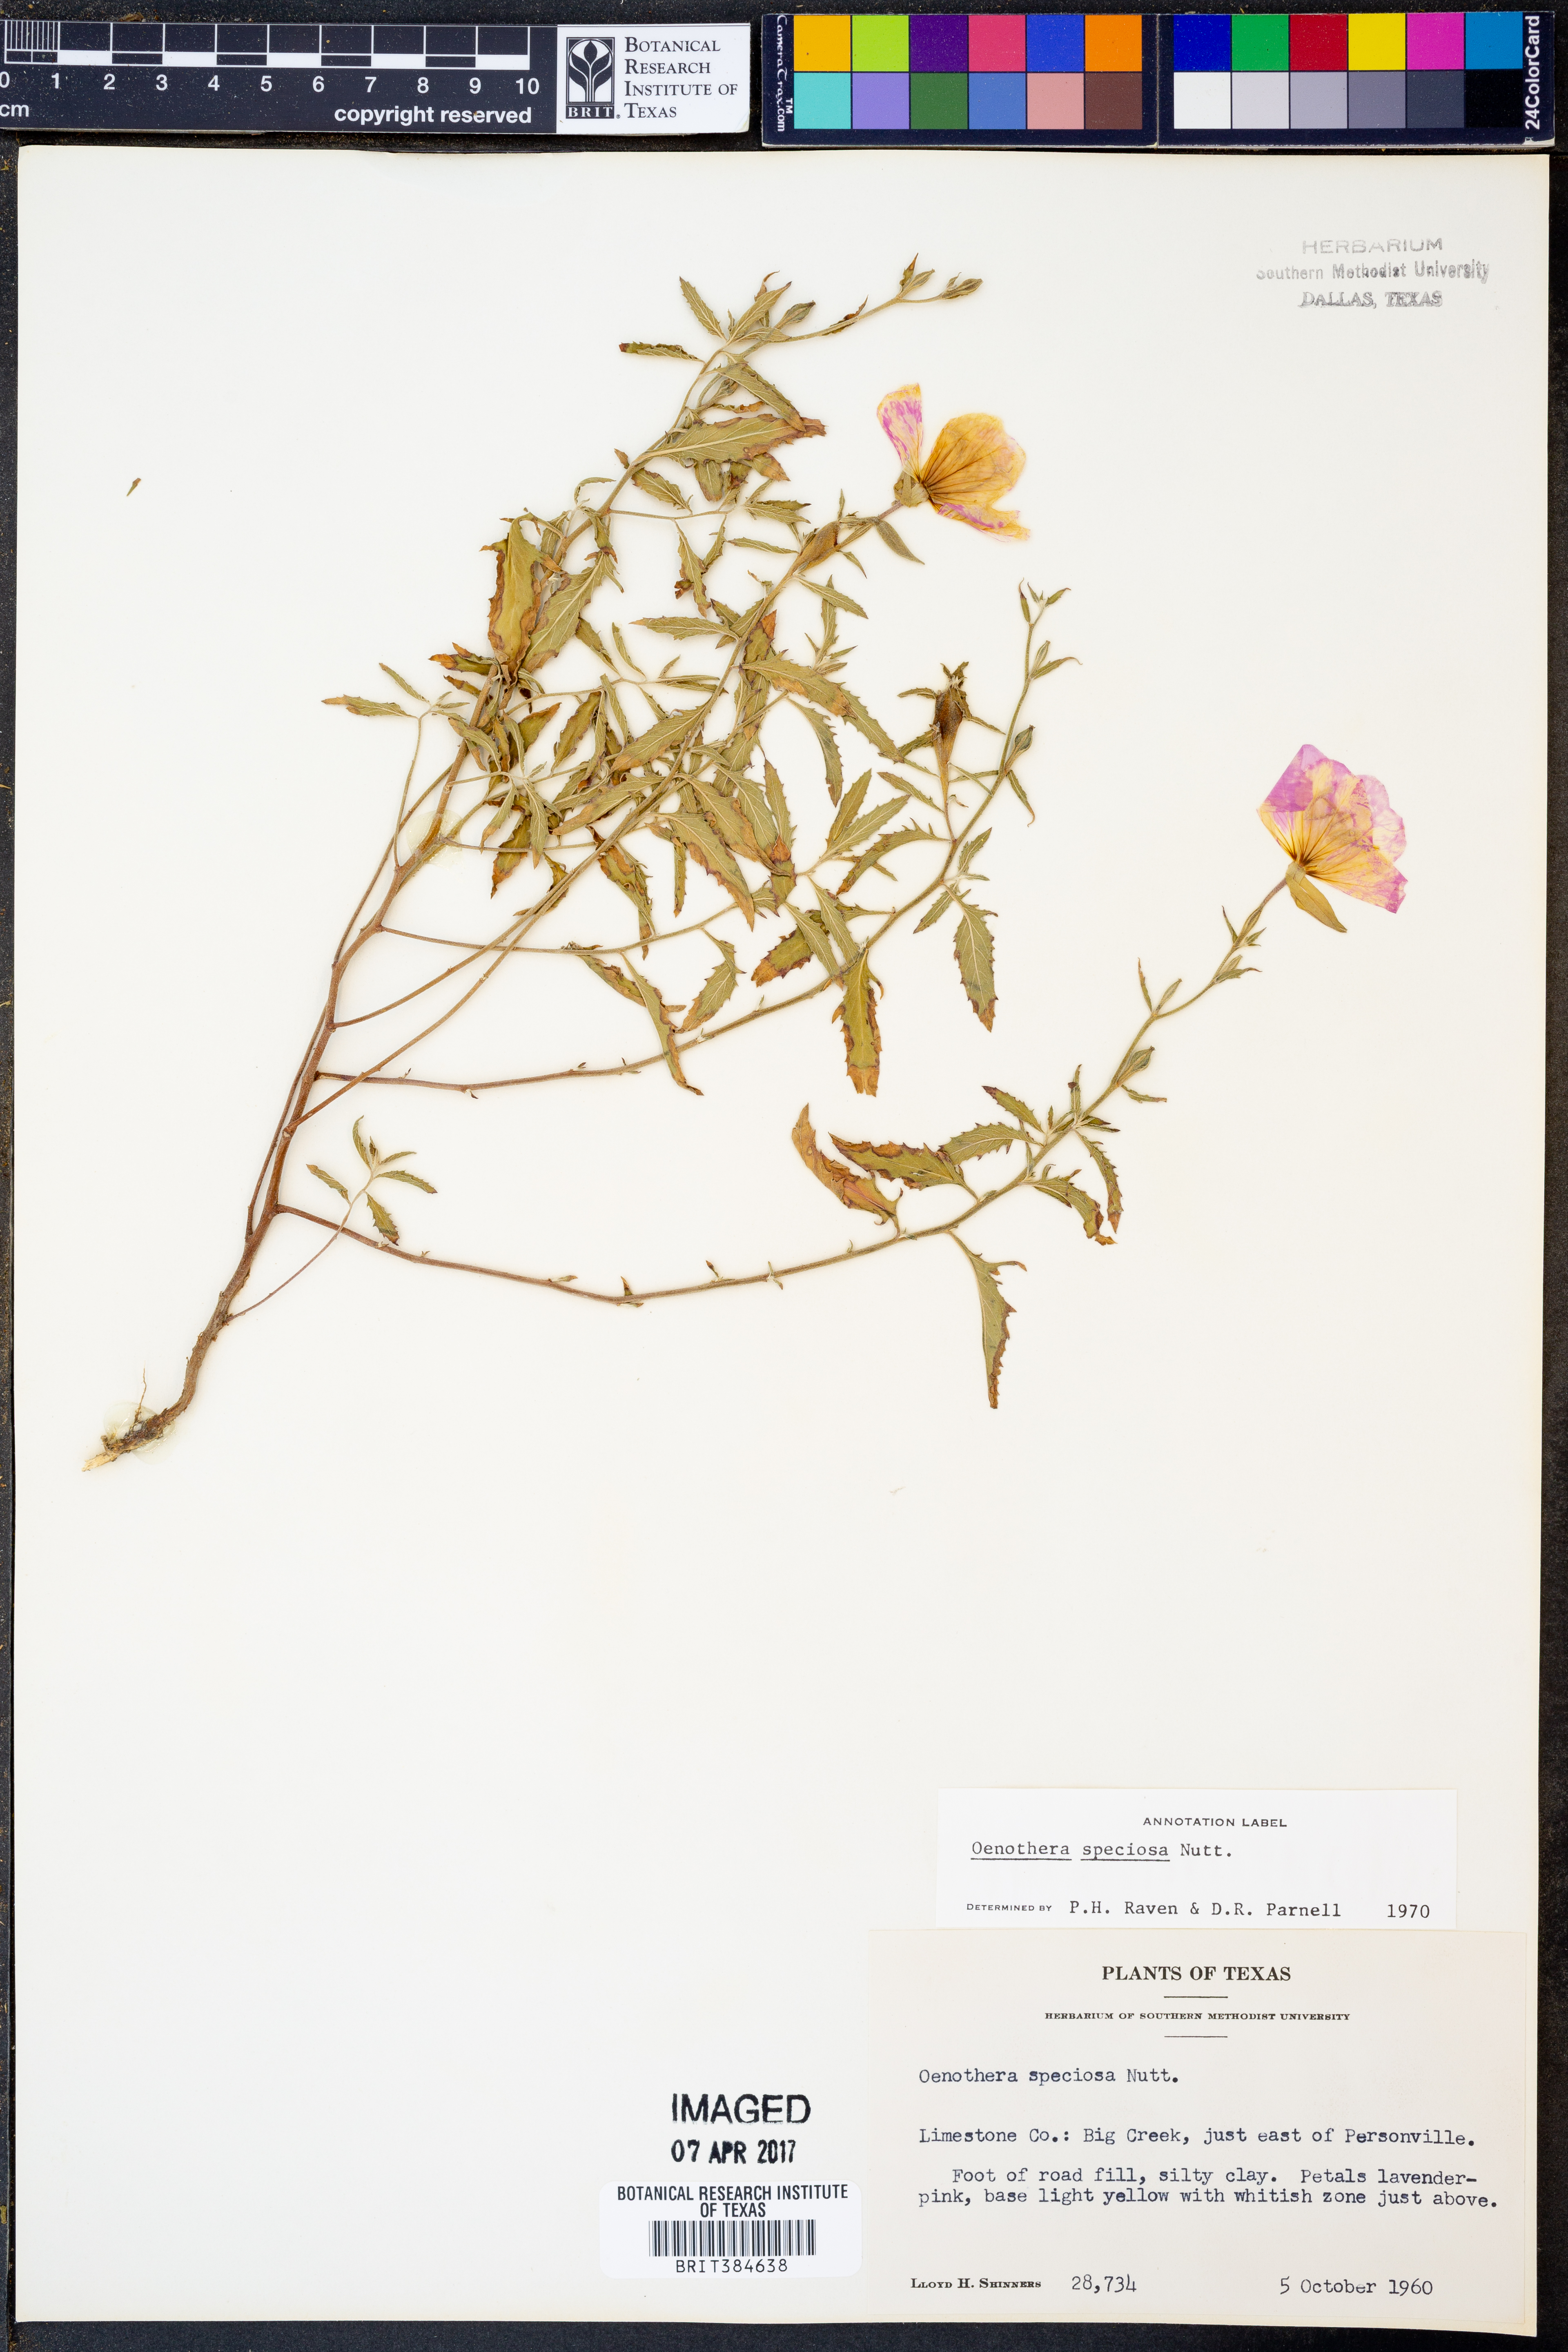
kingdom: Plantae
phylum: Tracheophyta
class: Magnoliopsida
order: Myrtales
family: Onagraceae
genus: Oenothera
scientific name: Oenothera speciosa
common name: White evening-primrose
